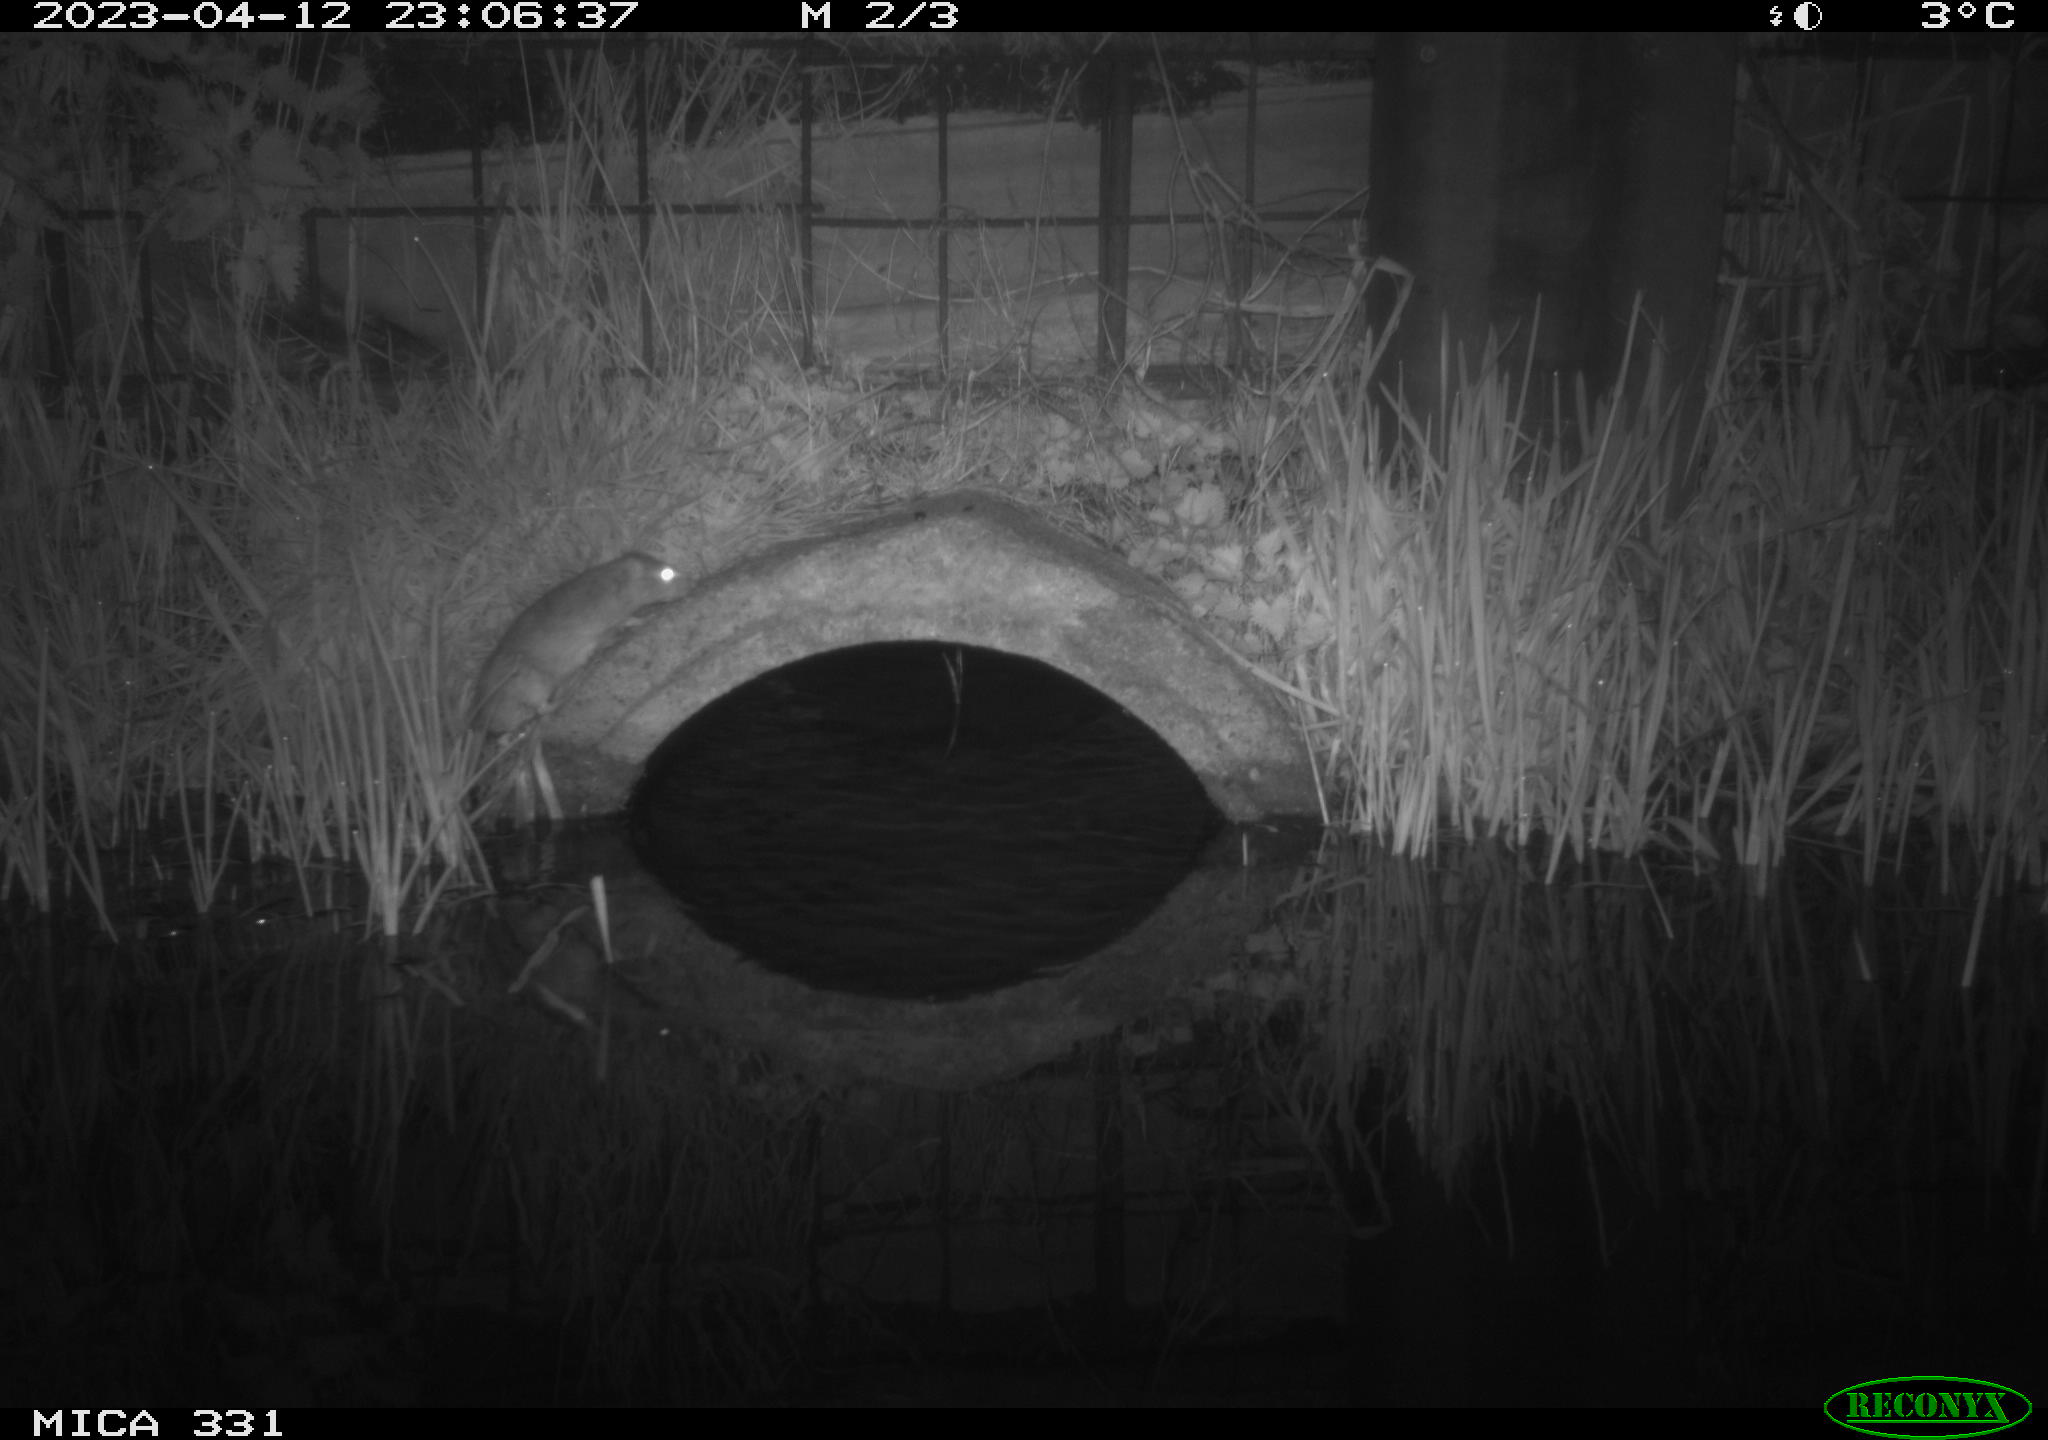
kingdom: Animalia
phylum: Chordata
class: Mammalia
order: Rodentia
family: Muridae
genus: Rattus
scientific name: Rattus norvegicus
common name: Brown rat
